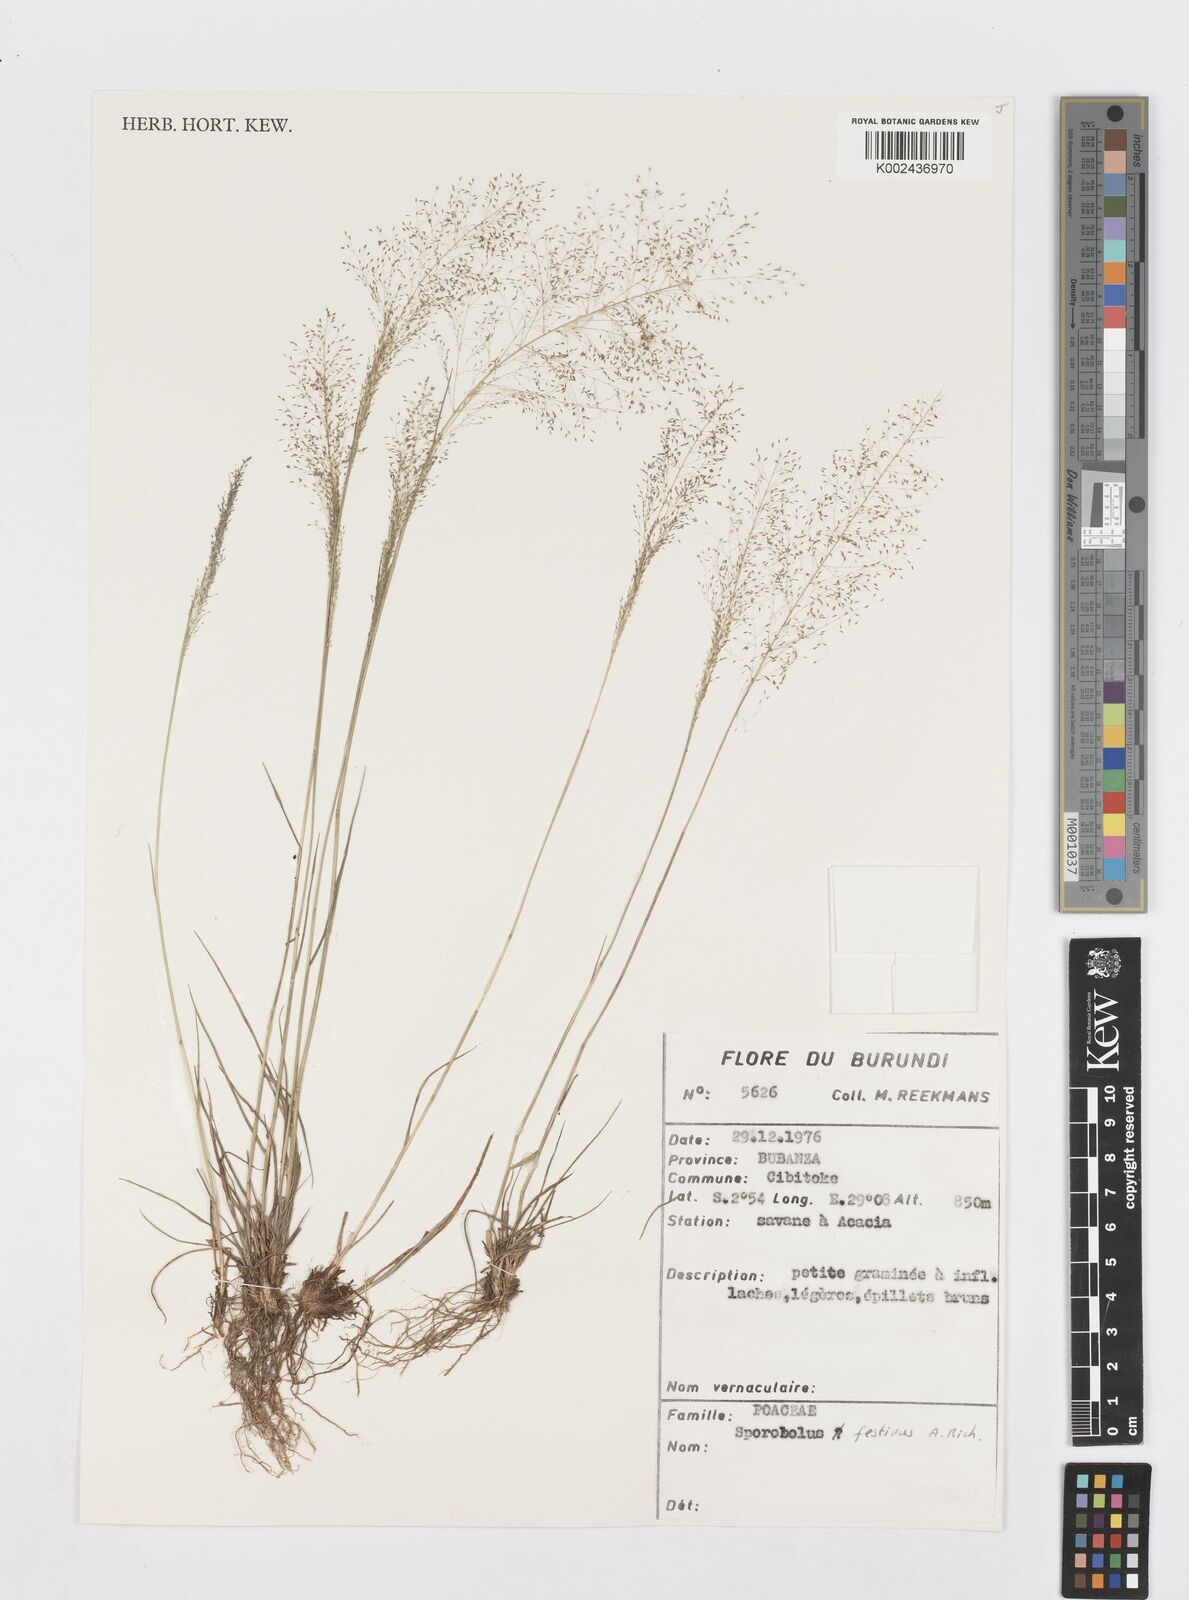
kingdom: Plantae
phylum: Tracheophyta
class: Liliopsida
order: Poales
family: Poaceae
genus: Sporobolus
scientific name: Sporobolus festivus
